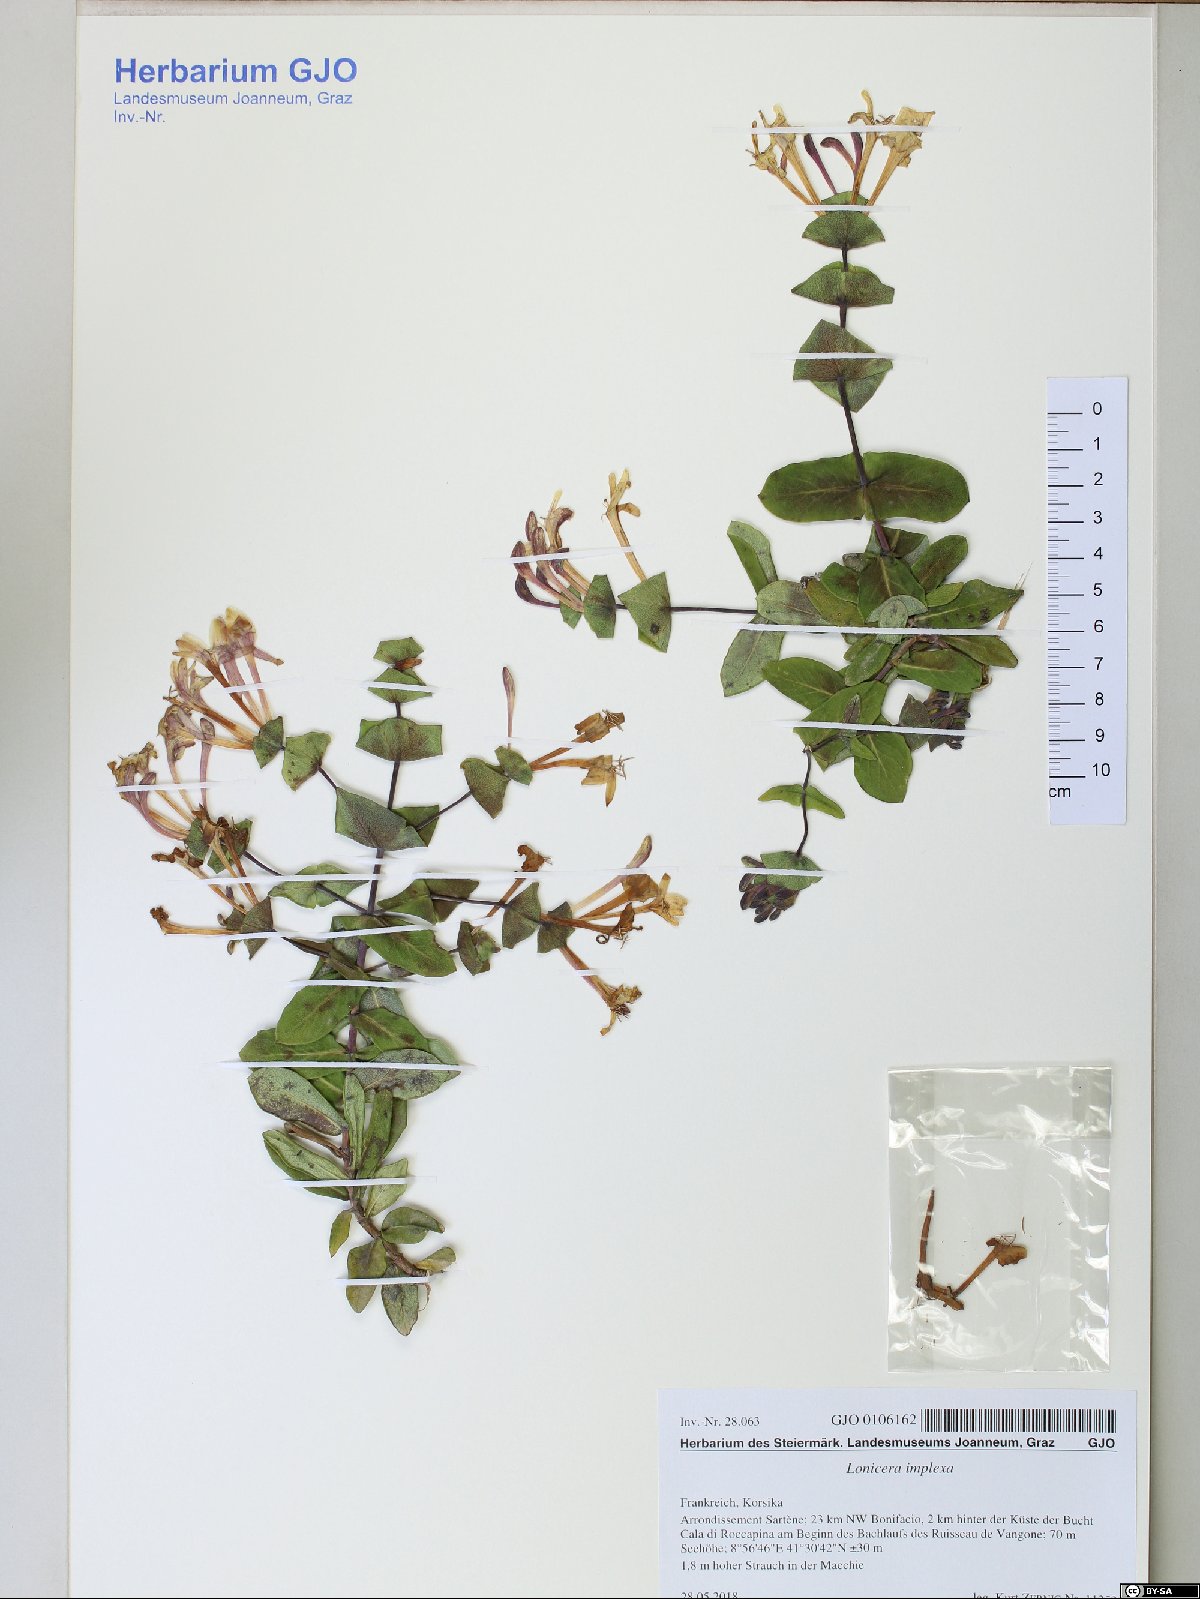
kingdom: Plantae
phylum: Tracheophyta
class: Magnoliopsida
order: Dipsacales
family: Caprifoliaceae
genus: Lonicera
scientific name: Lonicera implexa
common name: Minorca honeysuckle
